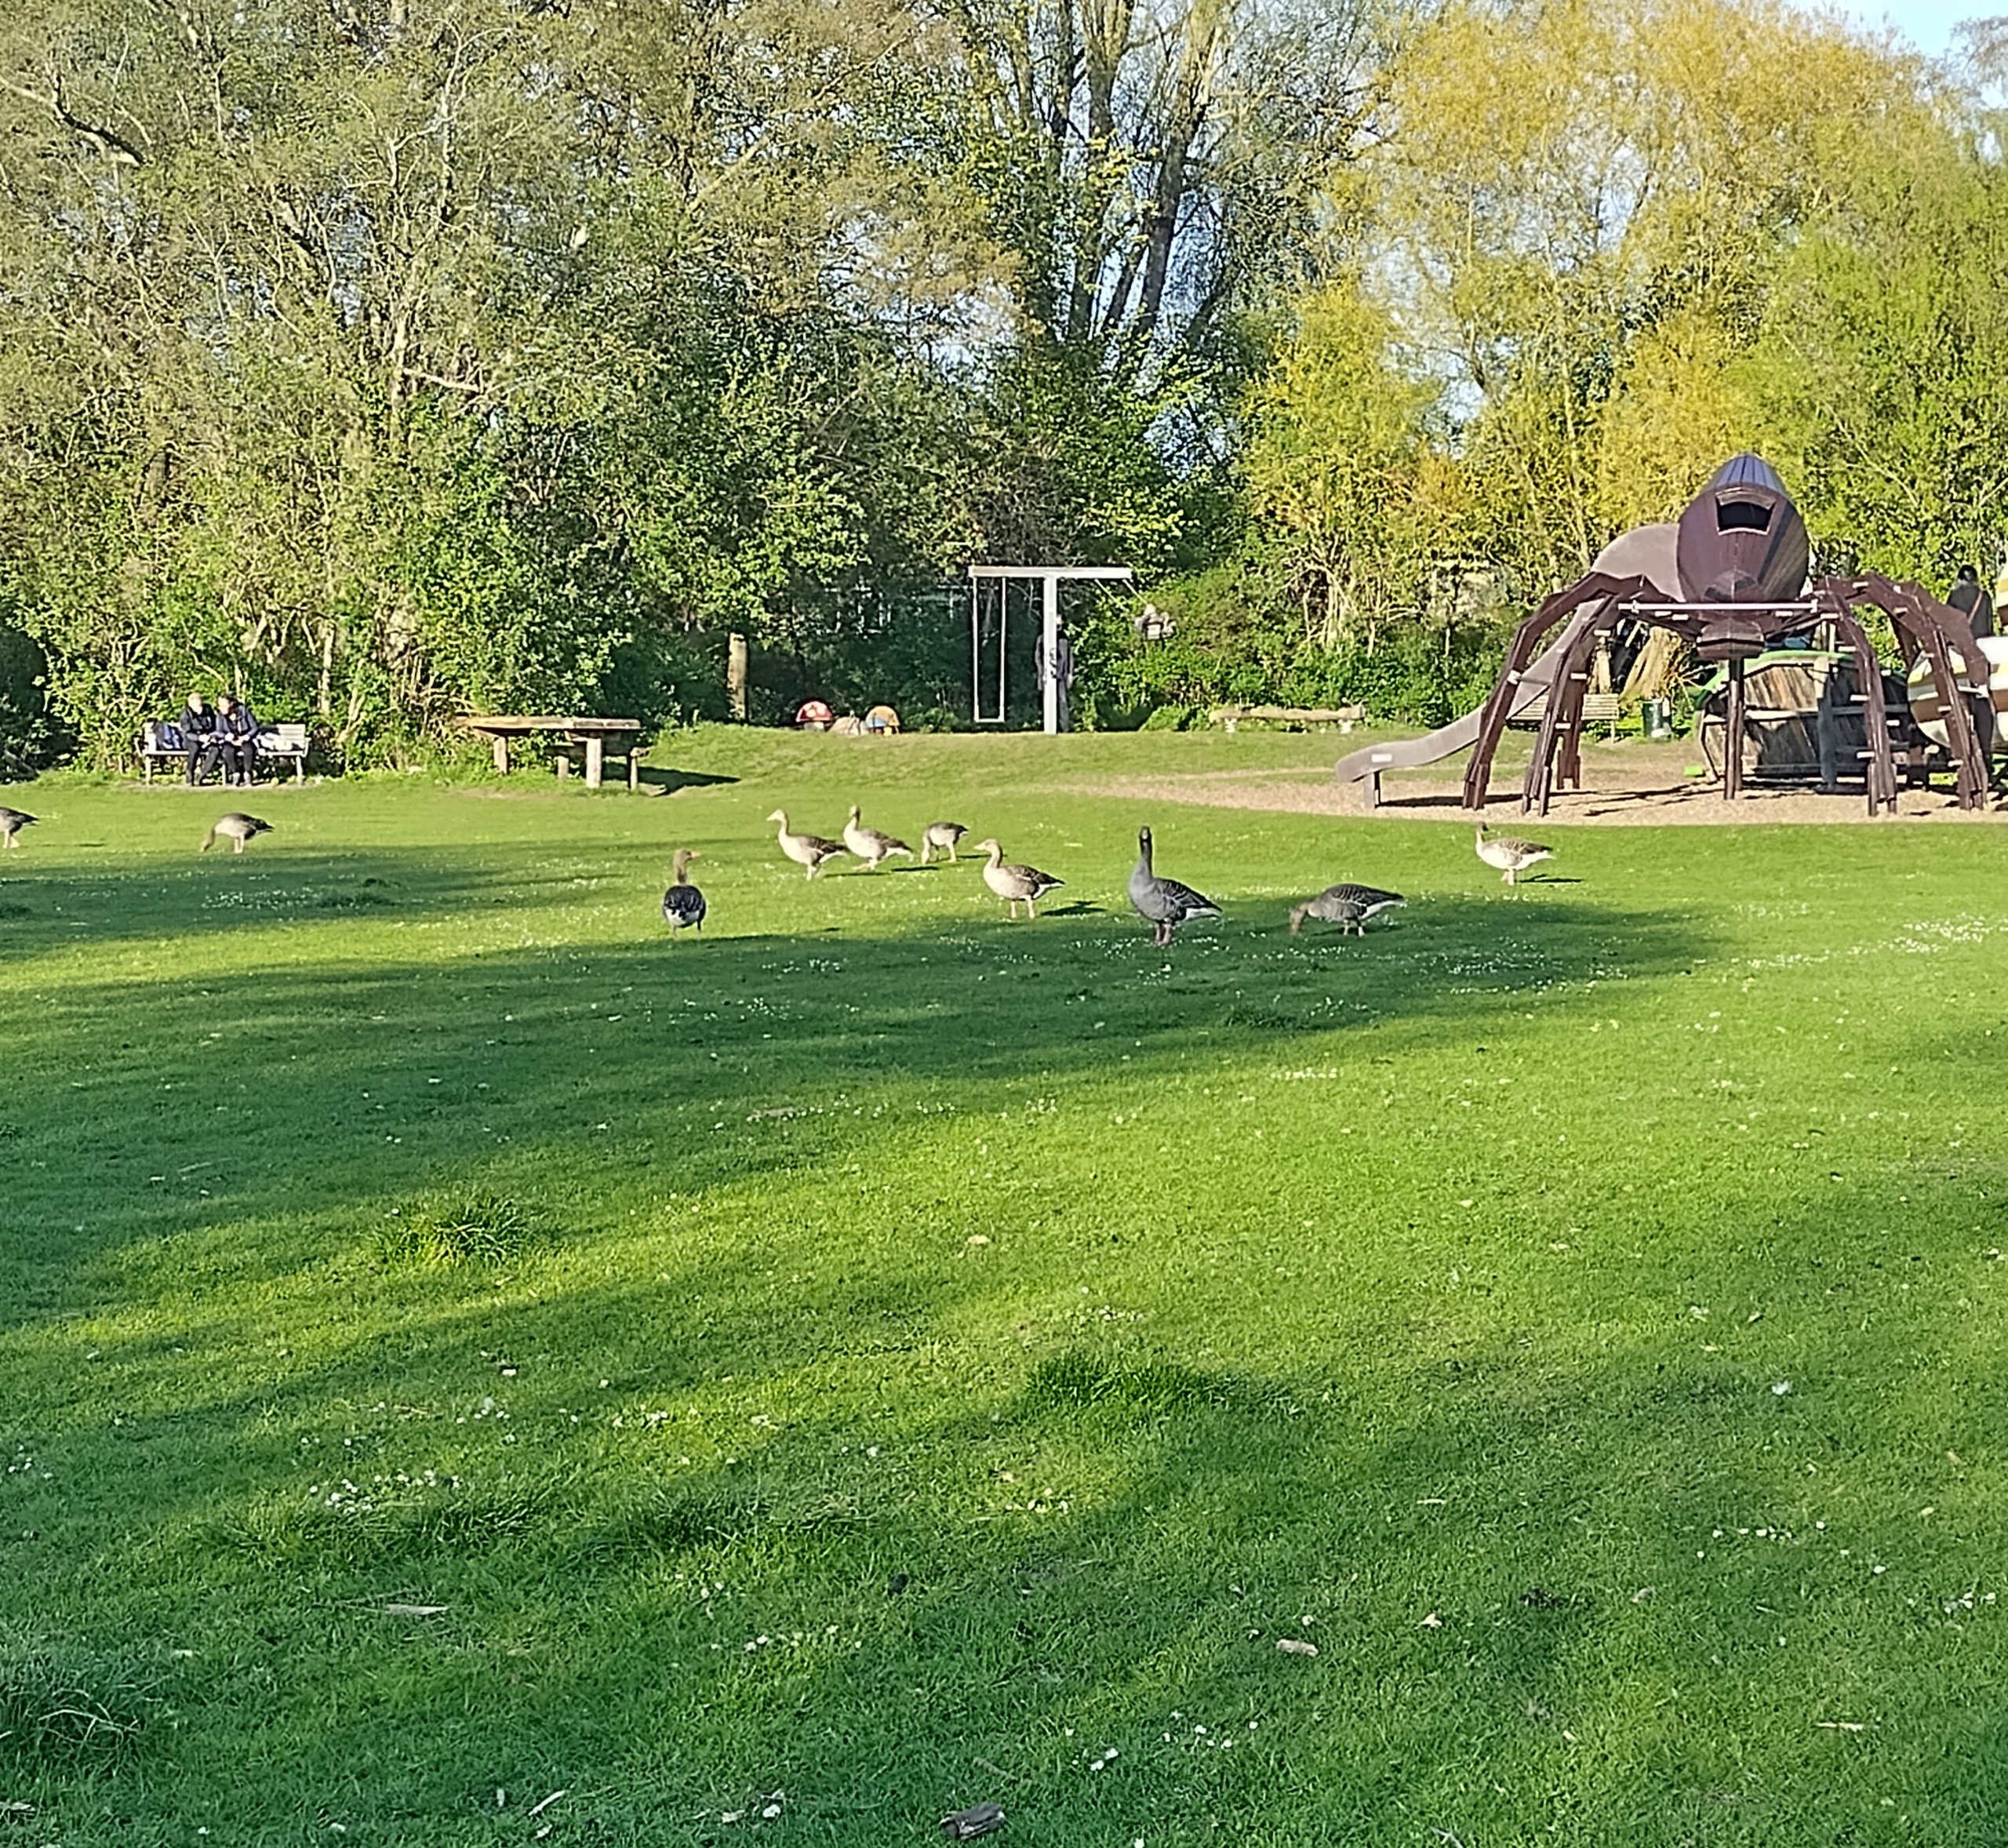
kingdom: Animalia
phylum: Chordata
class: Aves
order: Anseriformes
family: Anatidae
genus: Anser
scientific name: Anser anser
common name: Grågås
